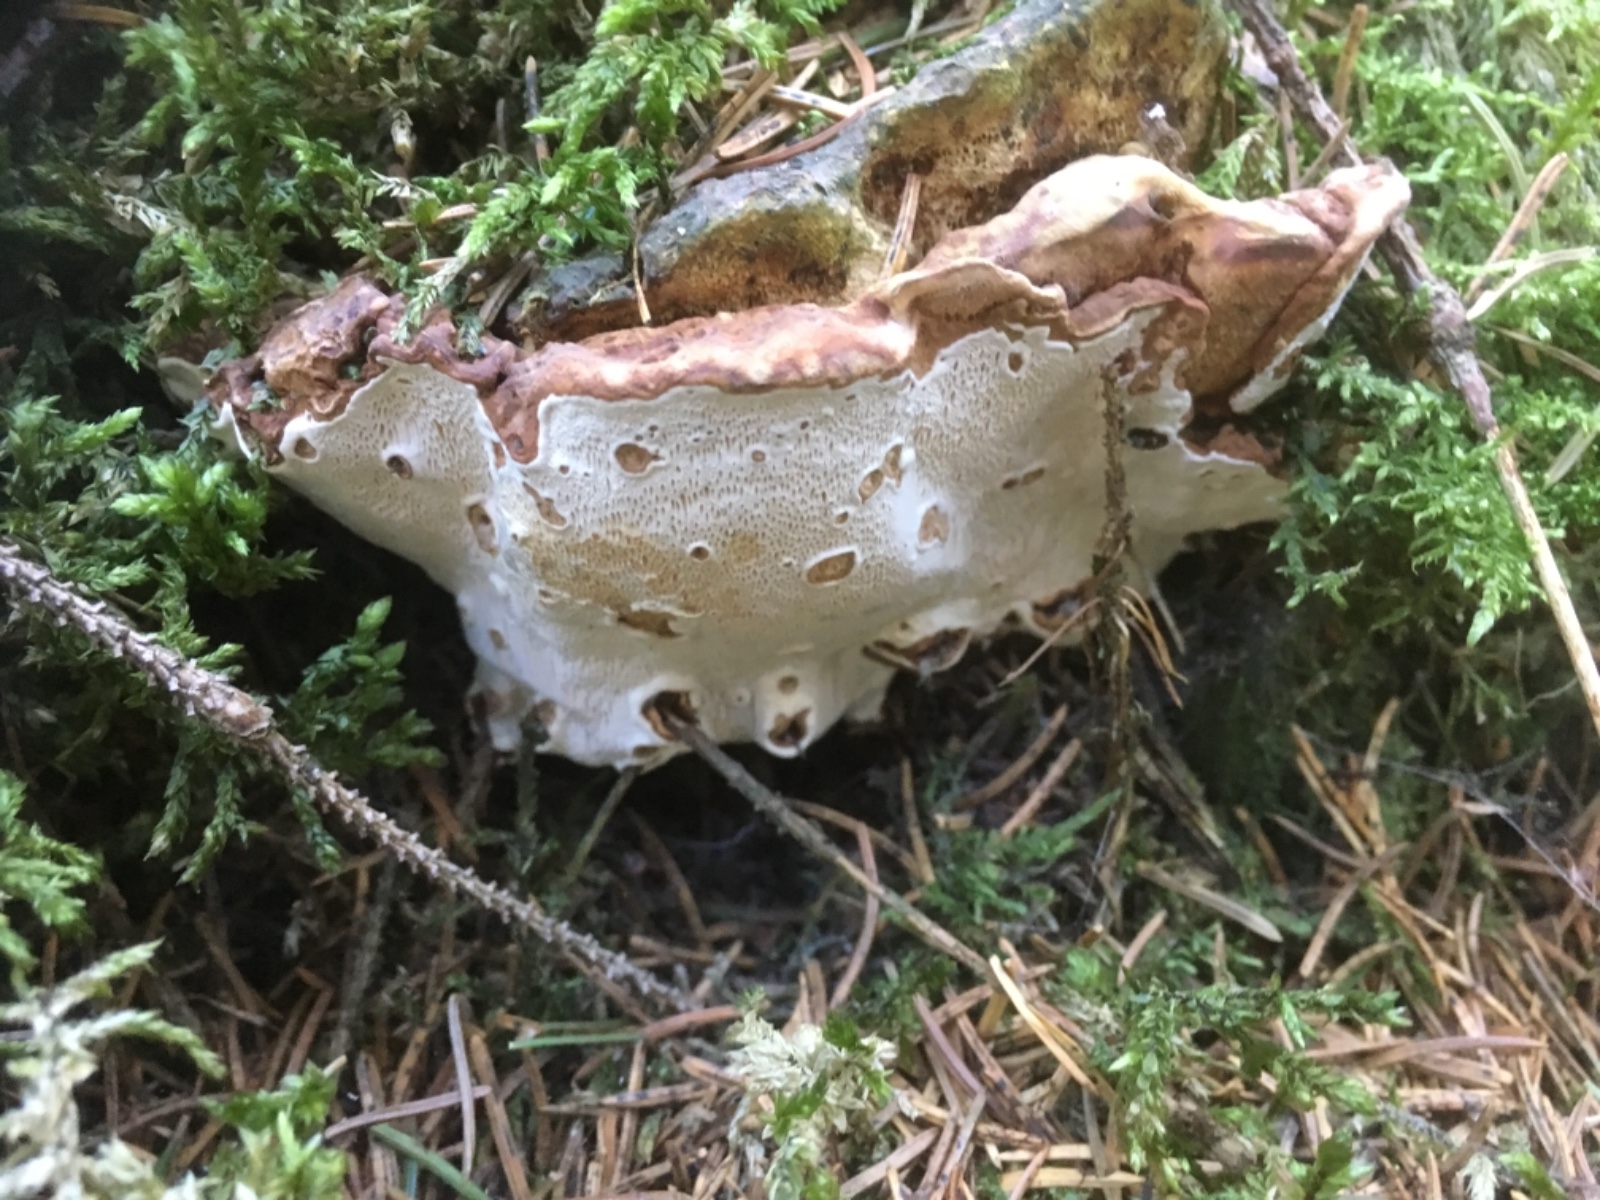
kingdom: Fungi
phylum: Basidiomycota
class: Agaricomycetes
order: Russulales
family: Bondarzewiaceae
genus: Heterobasidion
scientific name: Heterobasidion annosum
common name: almindelig rodfordærver
